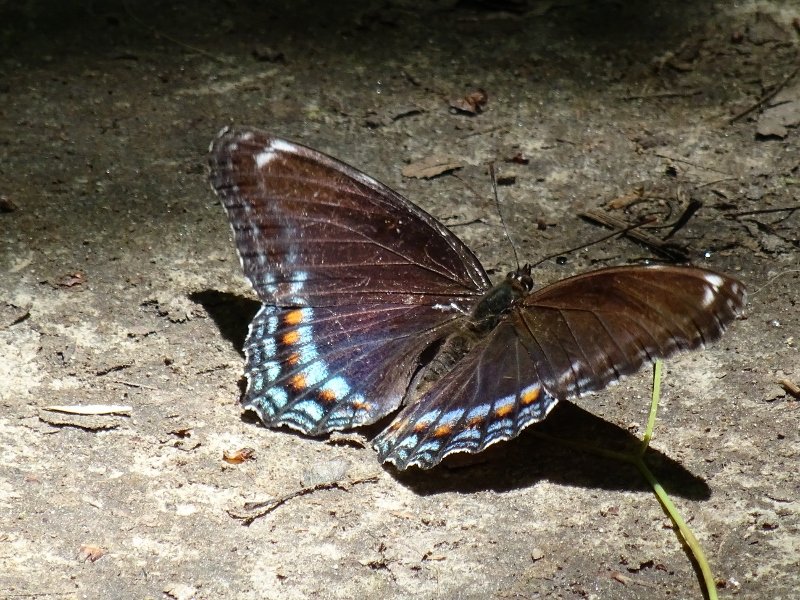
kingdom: Animalia
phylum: Arthropoda
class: Insecta
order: Lepidoptera
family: Nymphalidae
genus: Limenitis
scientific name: Limenitis astyanax
